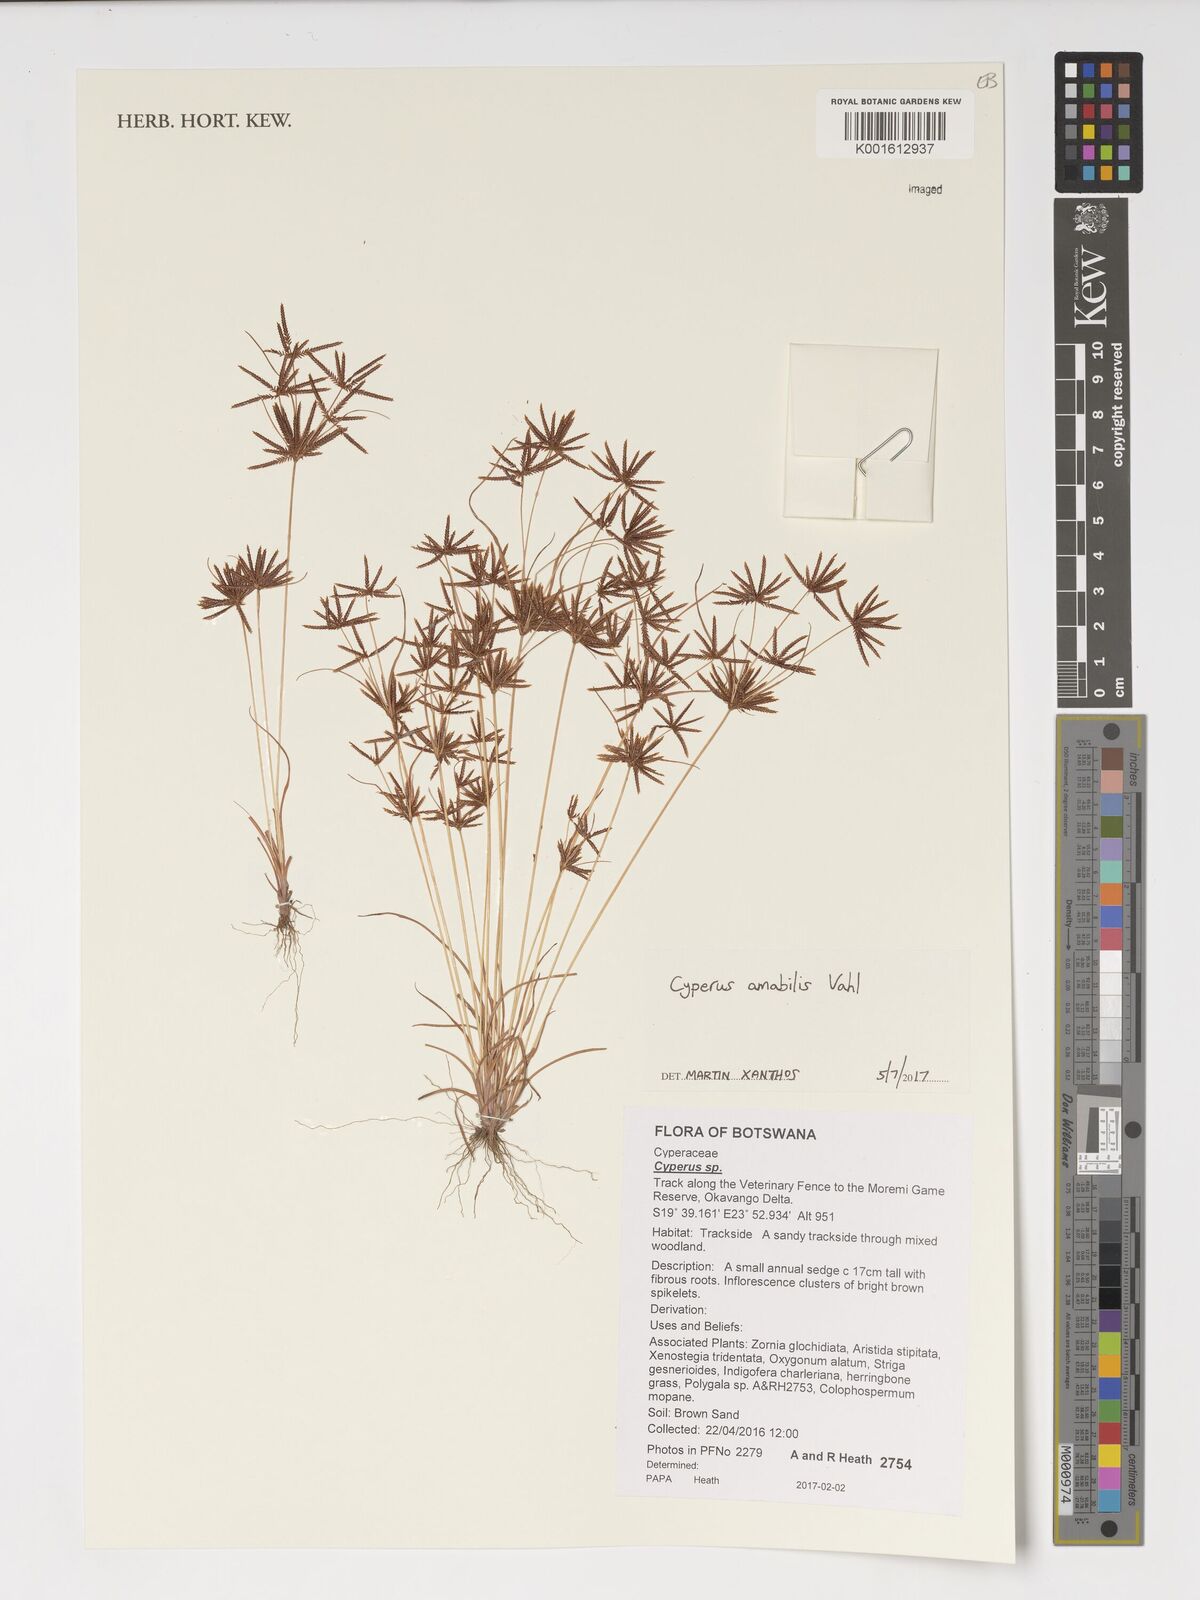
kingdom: Plantae
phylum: Tracheophyta
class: Liliopsida
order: Poales
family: Cyperaceae
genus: Cyperus
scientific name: Cyperus amabilis
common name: Foothill flat sedge
